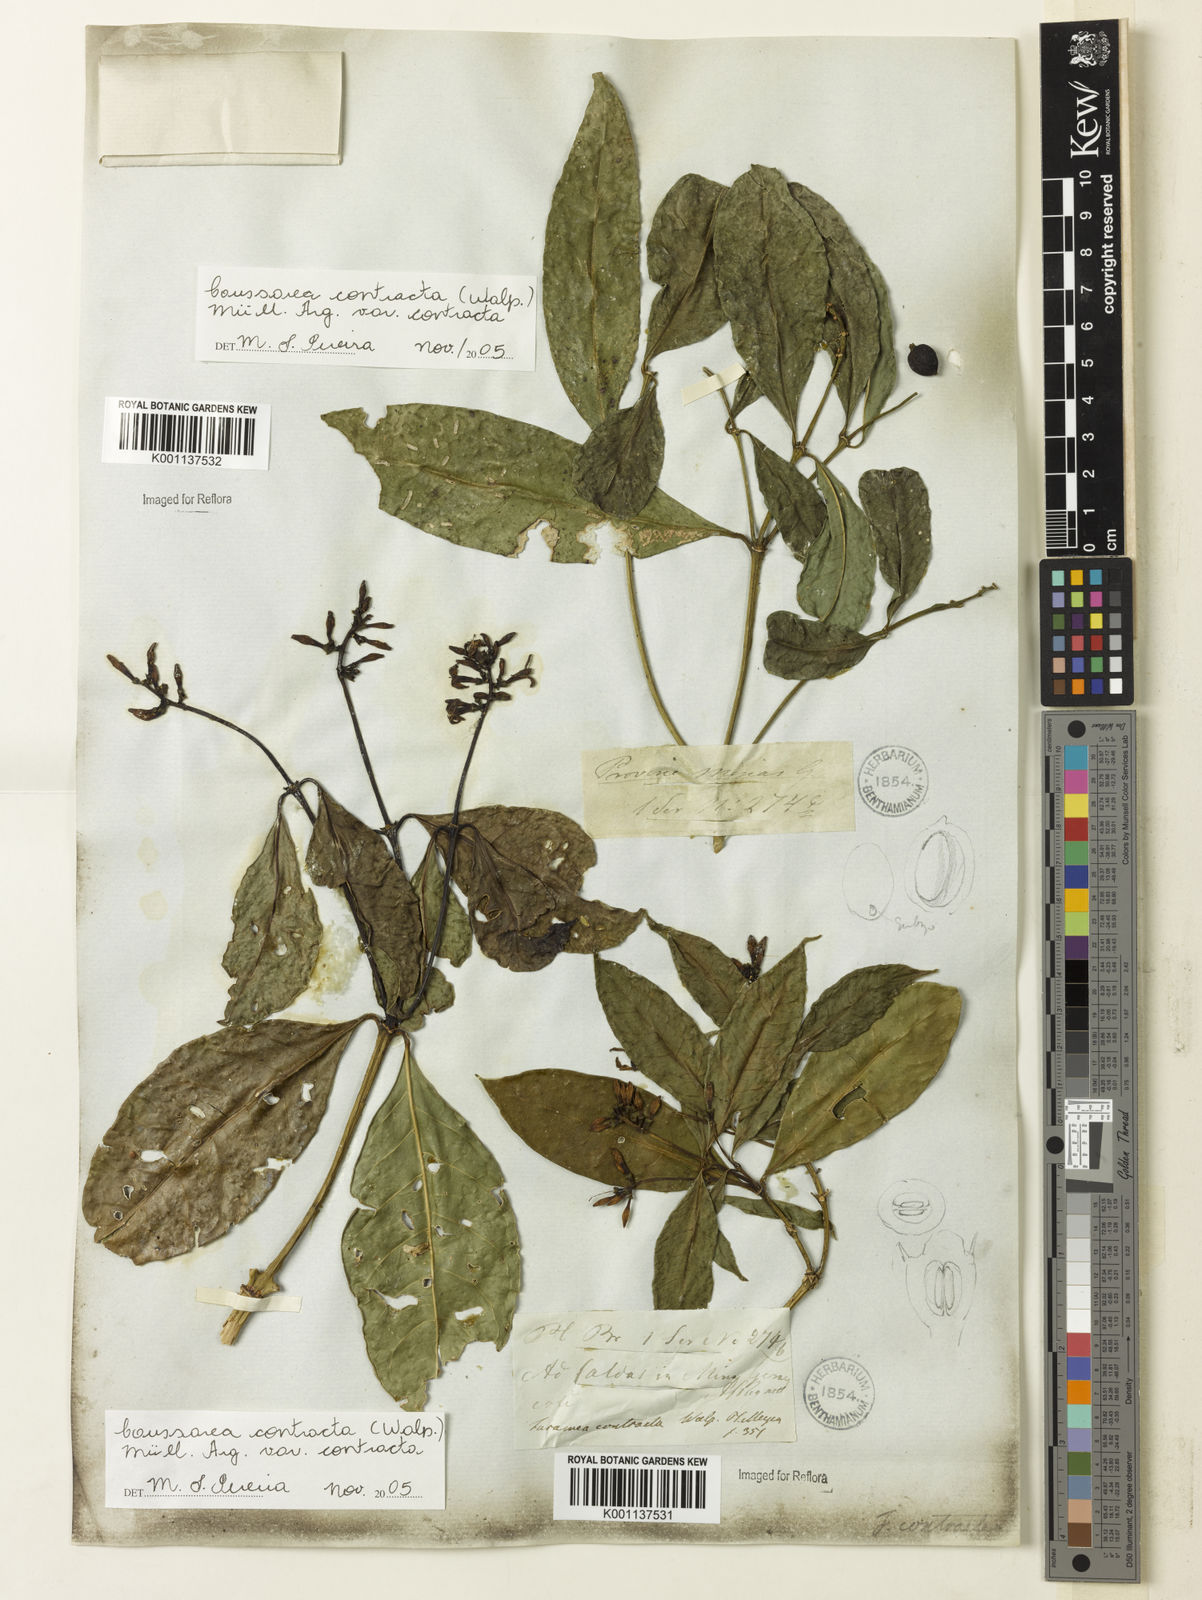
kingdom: Plantae
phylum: Tracheophyta
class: Magnoliopsida
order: Gentianales
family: Rubiaceae
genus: Coussarea
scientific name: Coussarea
